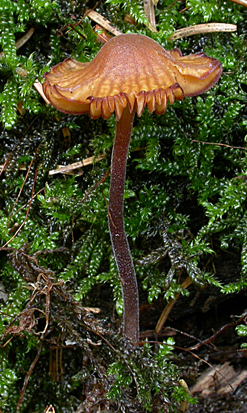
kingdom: Fungi
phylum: Basidiomycota
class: Agaricomycetes
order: Agaricales
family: Hymenogastraceae
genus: Galerina
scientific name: Galerina atkinsoniana
